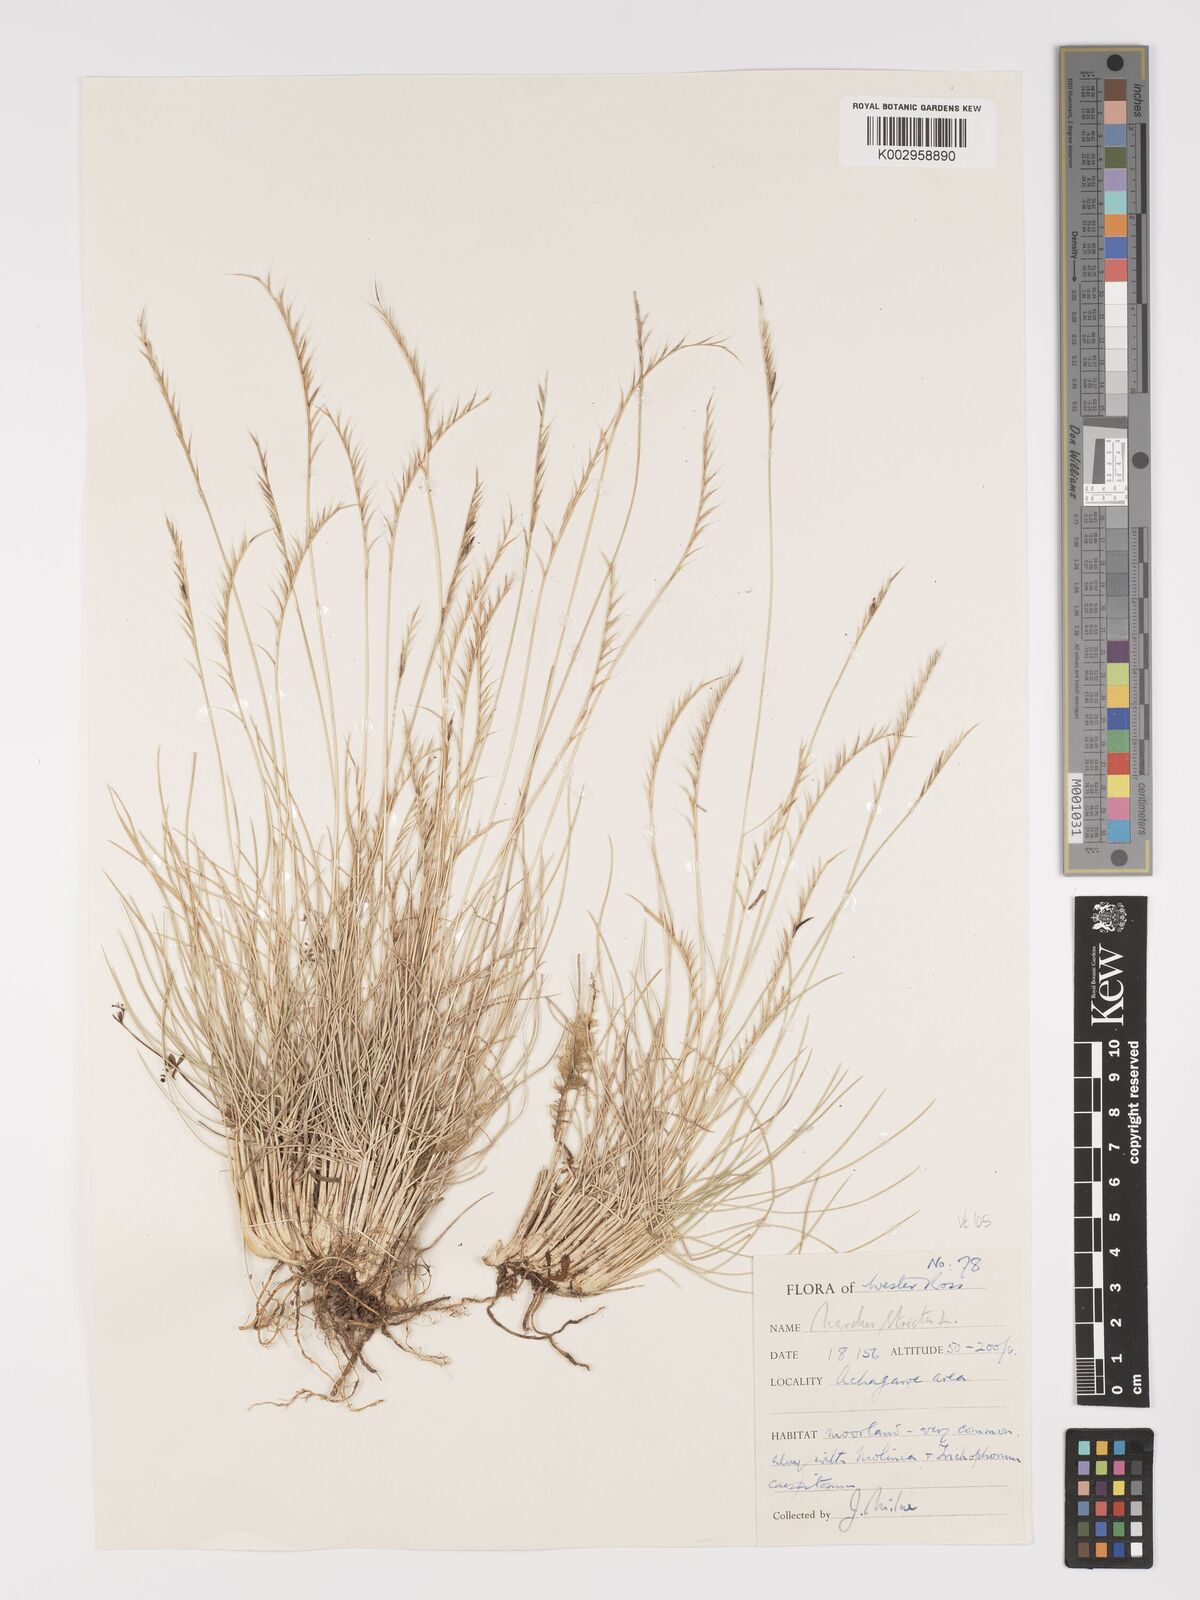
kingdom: Plantae
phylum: Tracheophyta
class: Liliopsida
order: Poales
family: Poaceae
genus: Nardus
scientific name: Nardus stricta
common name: Mat-grass
